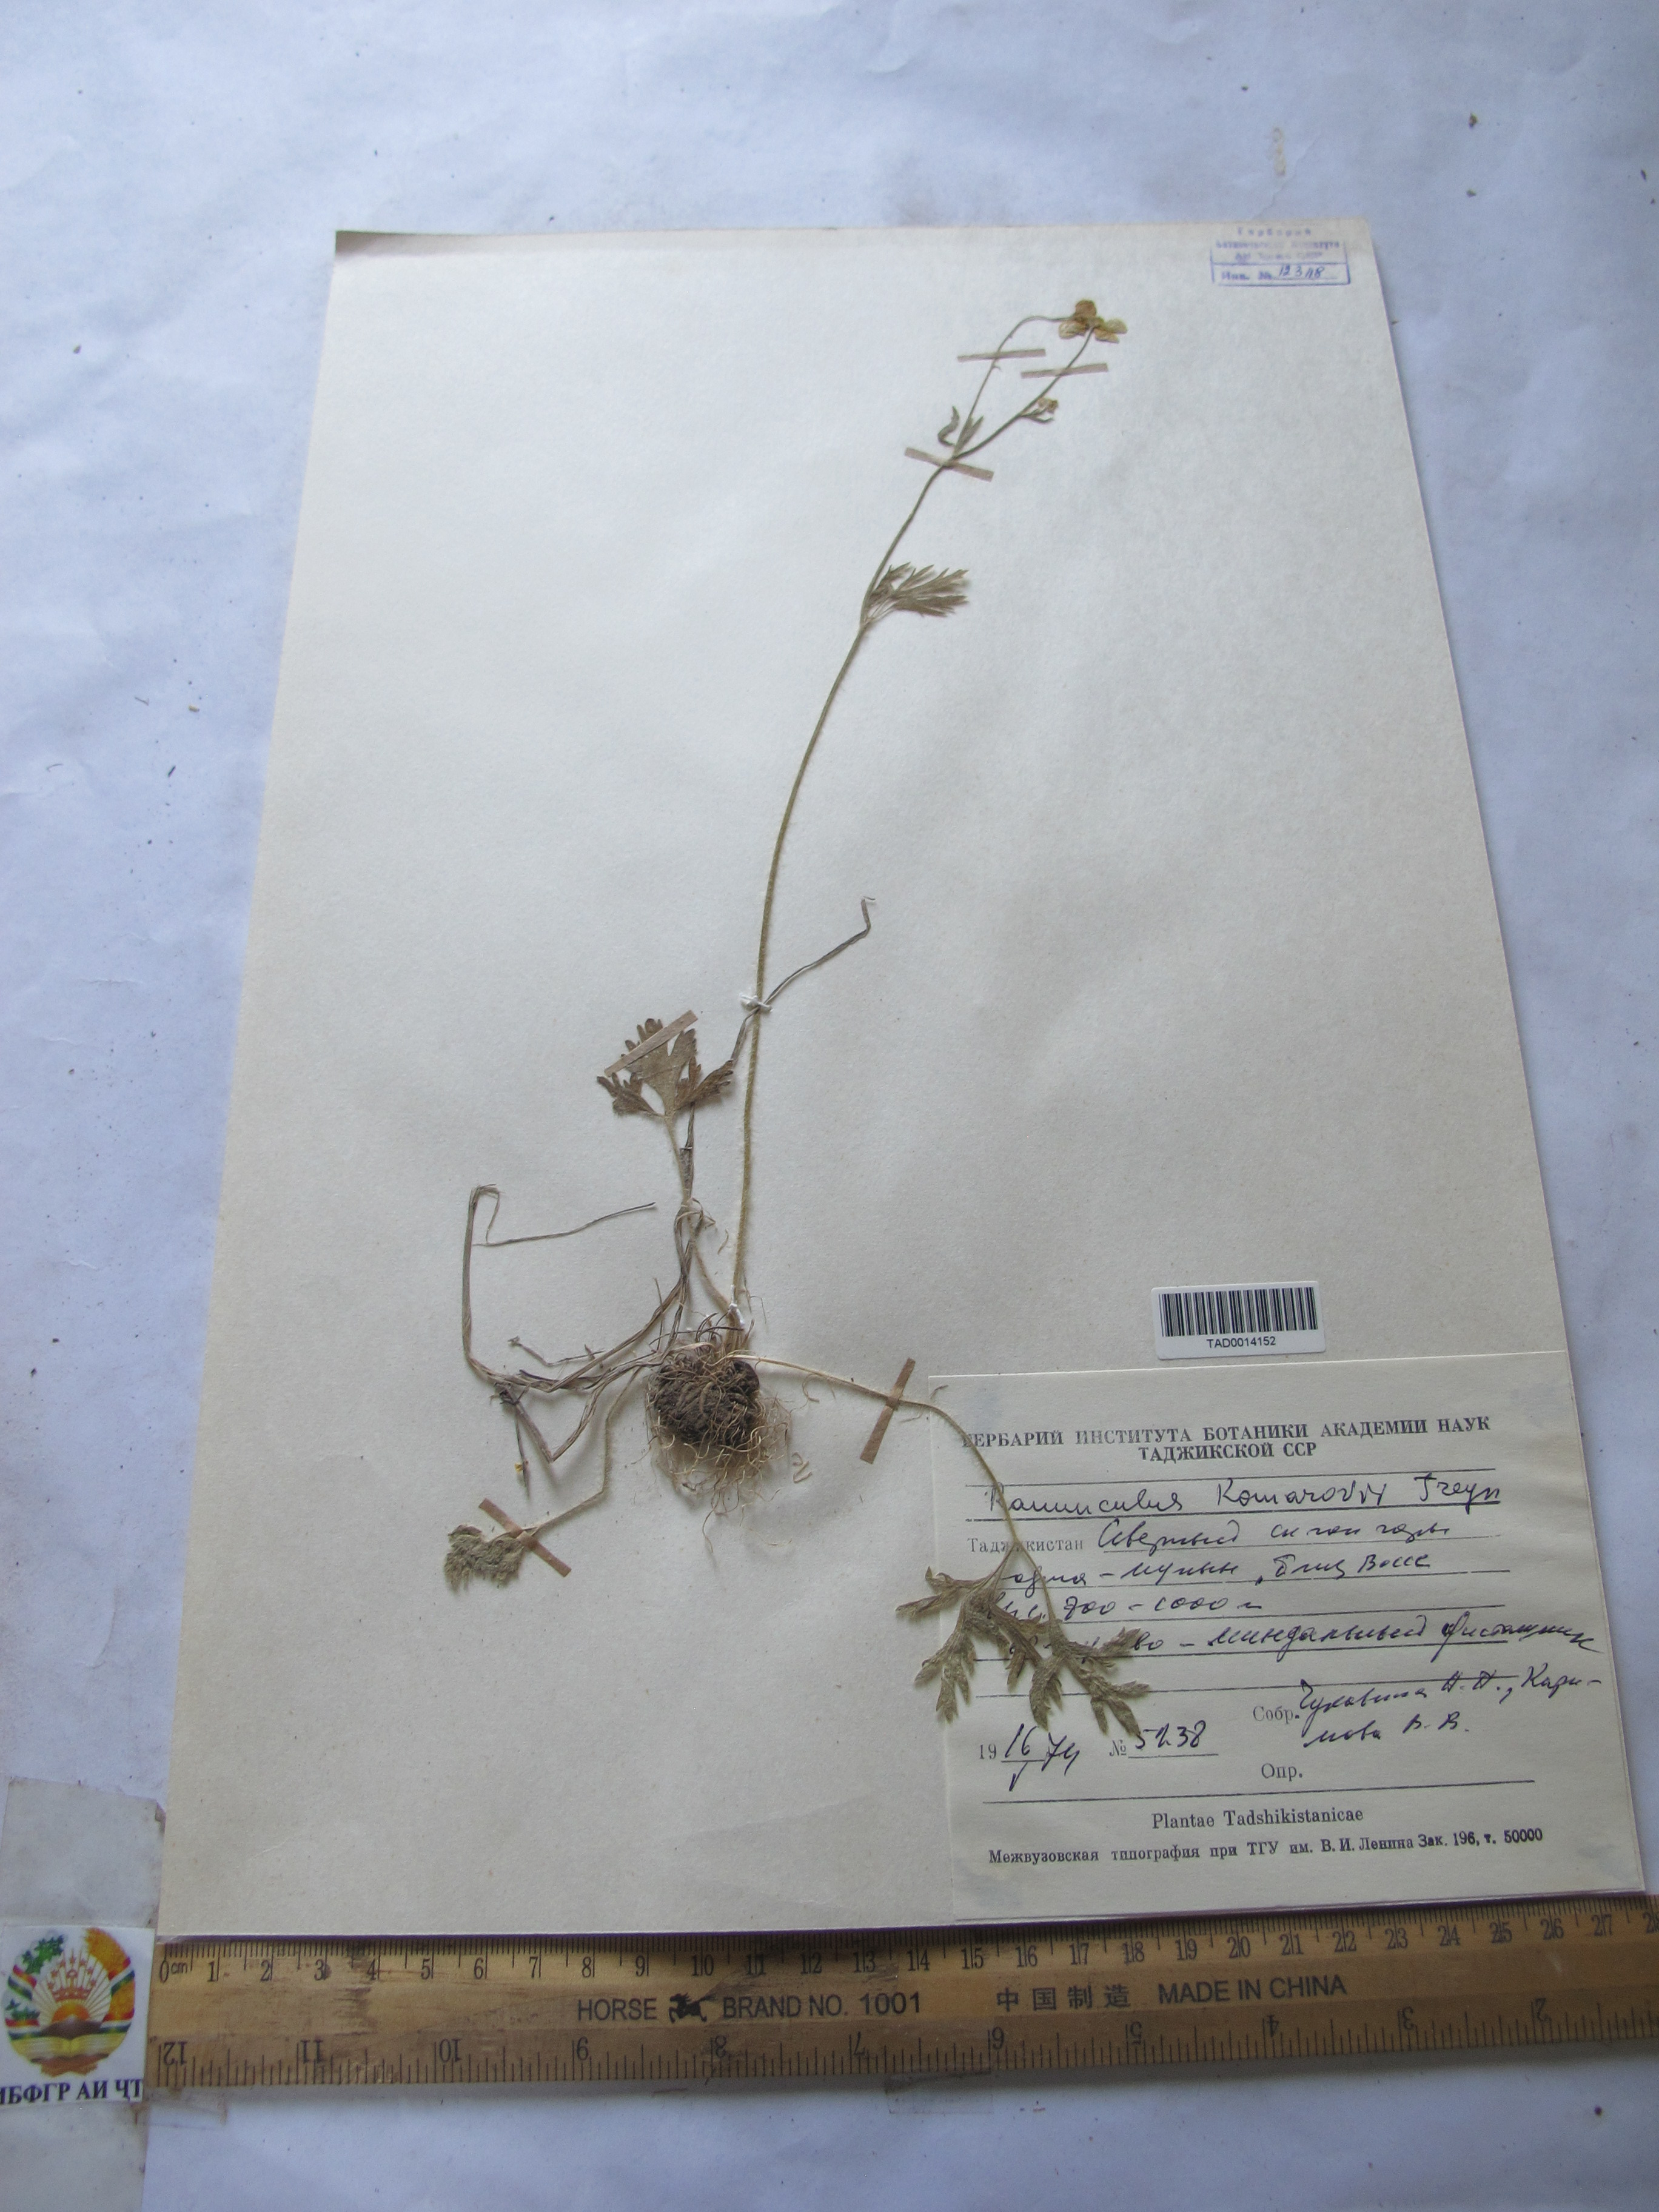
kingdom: Plantae
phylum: Tracheophyta
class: Magnoliopsida
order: Ranunculales
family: Ranunculaceae
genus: Ranunculus
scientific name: Ranunculus komarovii
